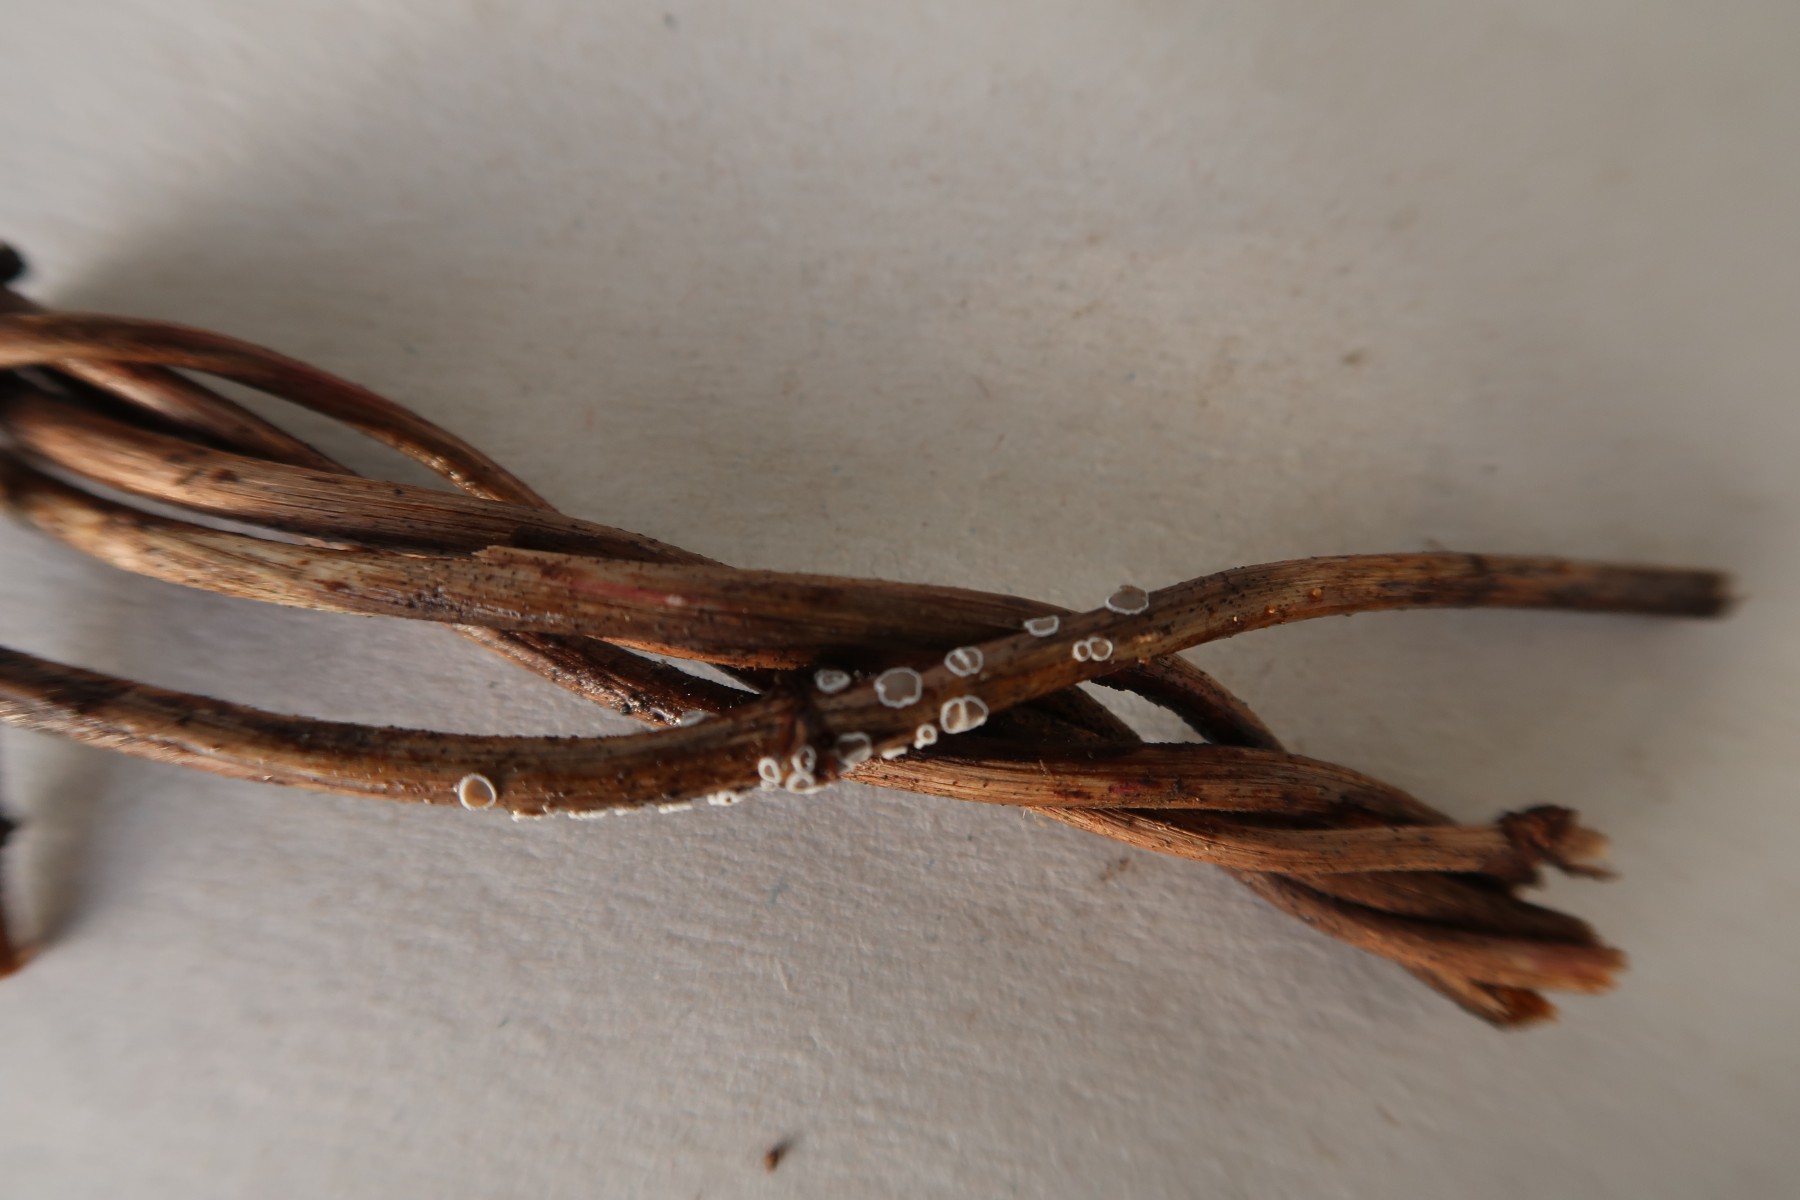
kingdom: Fungi
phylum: Basidiomycota
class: Agaricomycetes
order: Agaricales
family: Niaceae
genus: Lachnella
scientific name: Lachnella alboviolascens
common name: grå frynserede
